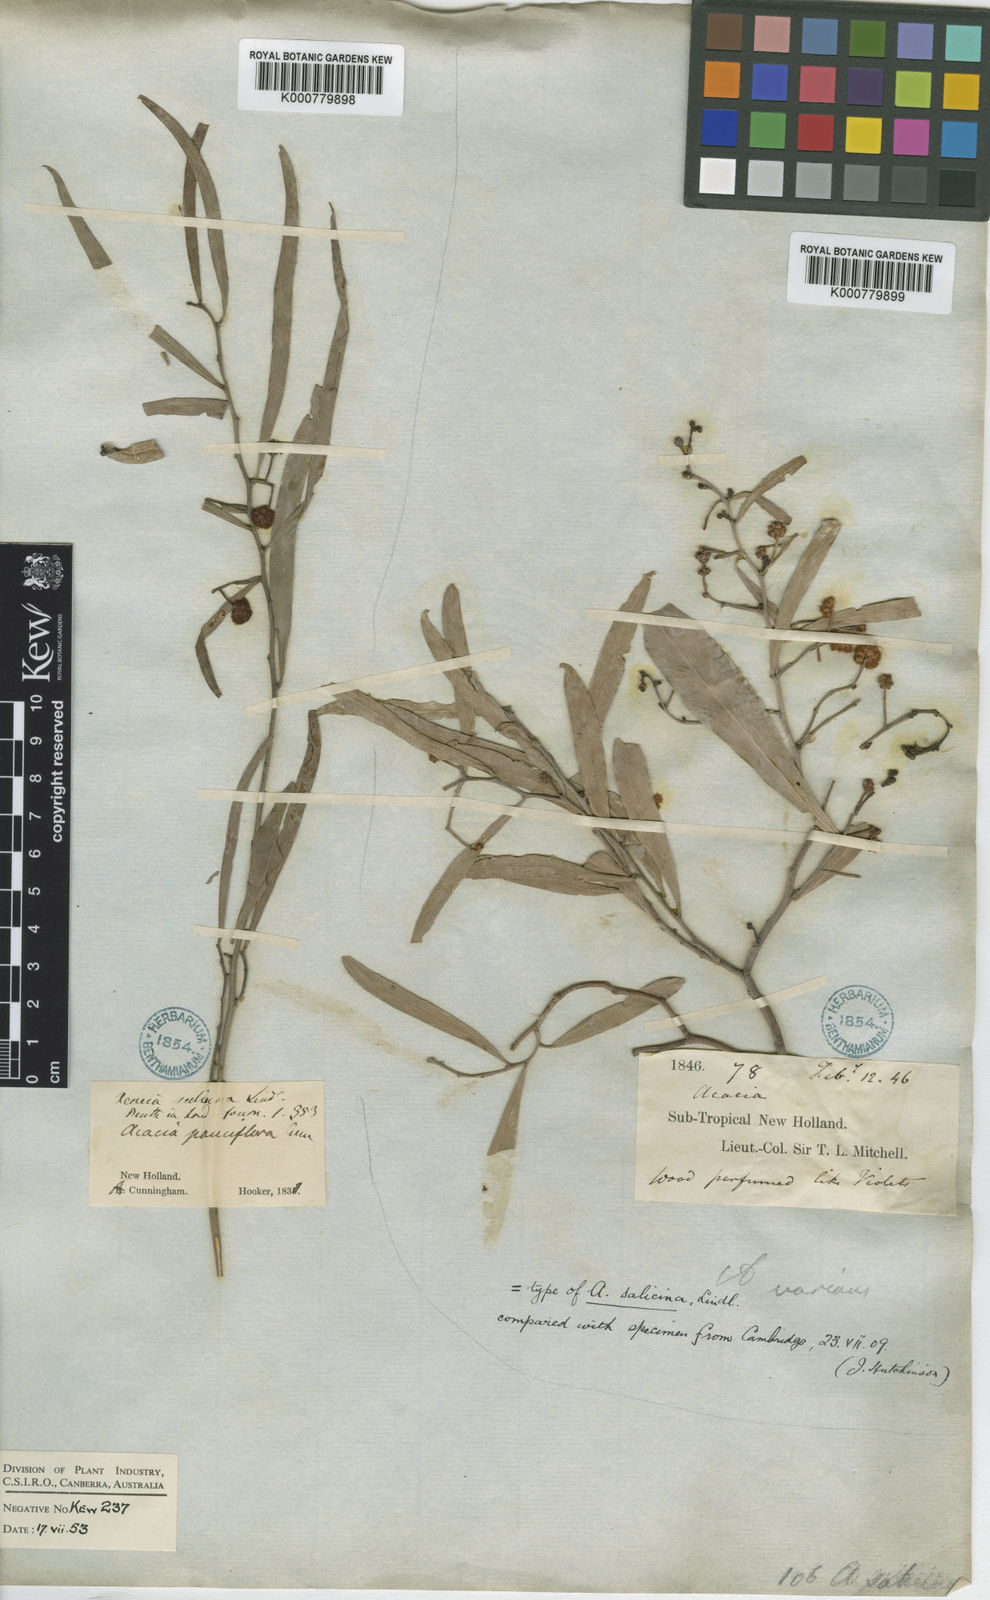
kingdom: Plantae
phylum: Tracheophyta
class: Magnoliopsida
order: Fabales
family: Fabaceae
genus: Acacia
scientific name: Acacia salicina
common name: Broughton willow wattle
